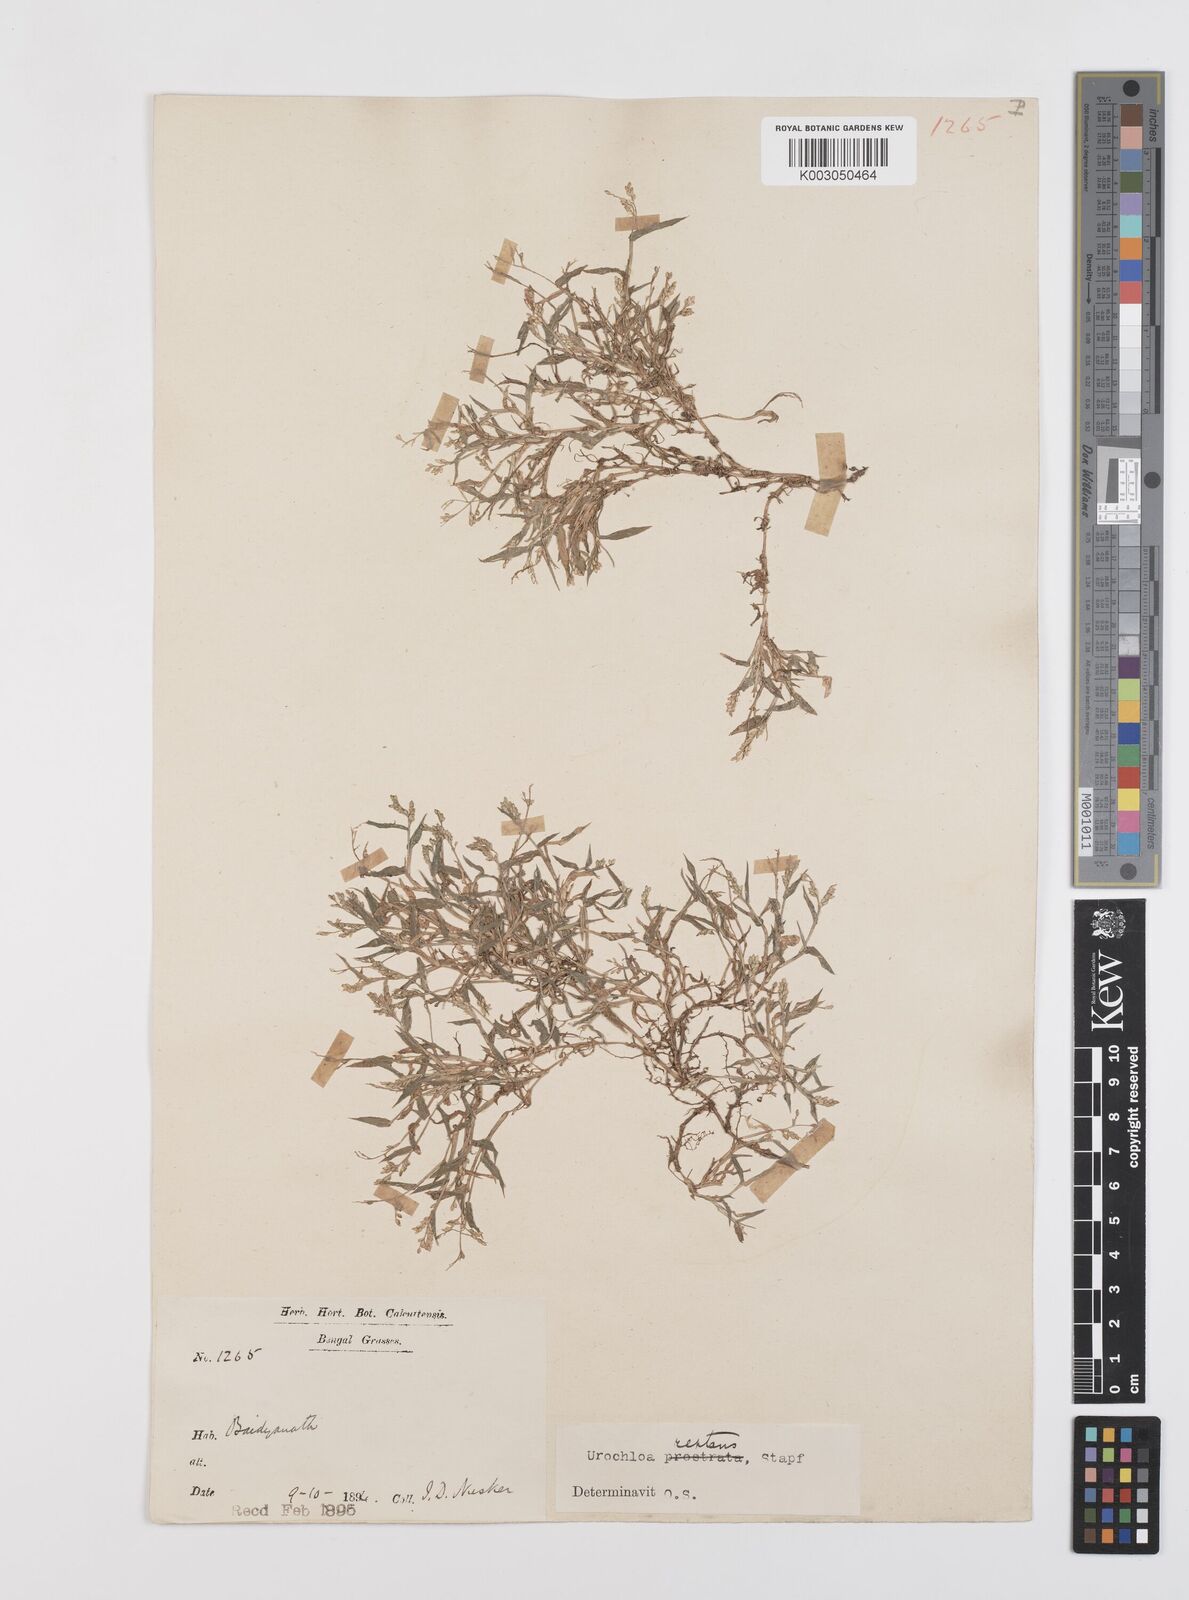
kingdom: Plantae
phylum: Tracheophyta
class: Liliopsida
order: Poales
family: Poaceae
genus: Urochloa
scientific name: Urochloa reptans
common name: Sprawling signalgrass
